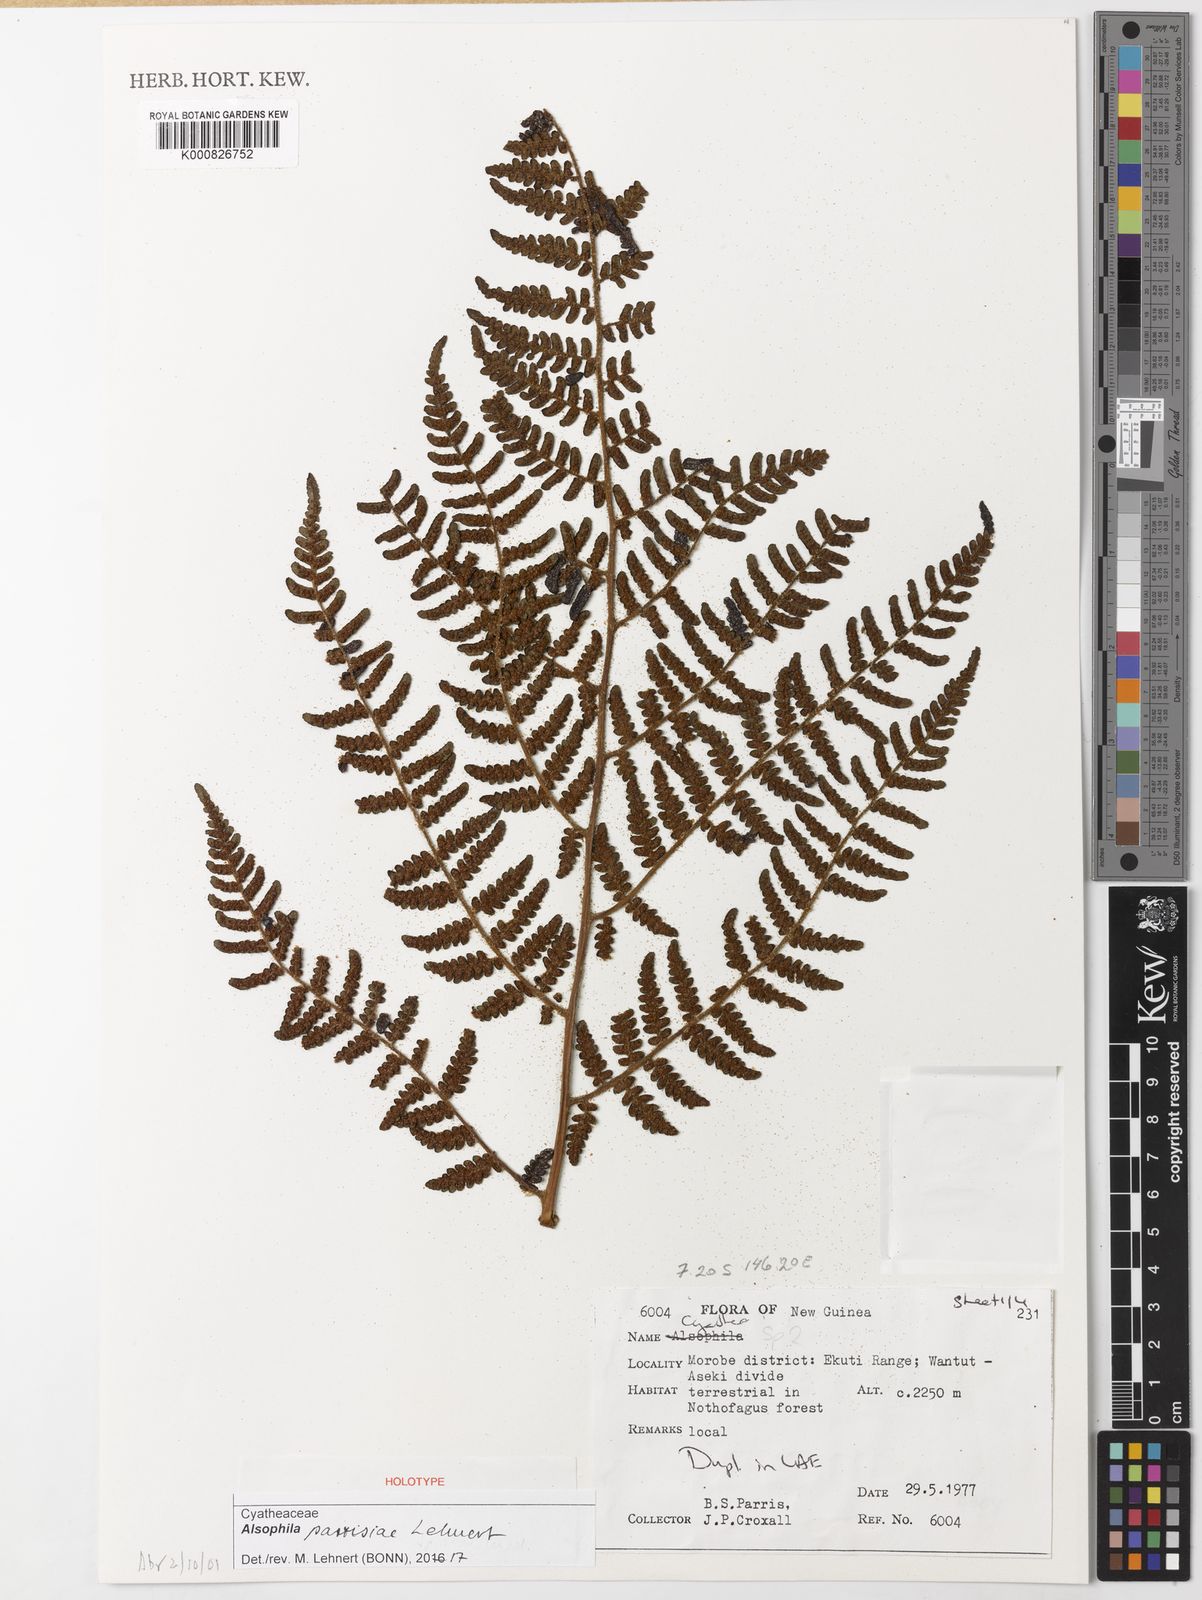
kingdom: Plantae
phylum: Tracheophyta
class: Polypodiopsida
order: Cyatheales
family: Cyatheaceae
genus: Alsophila
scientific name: Alsophila parrisiae
